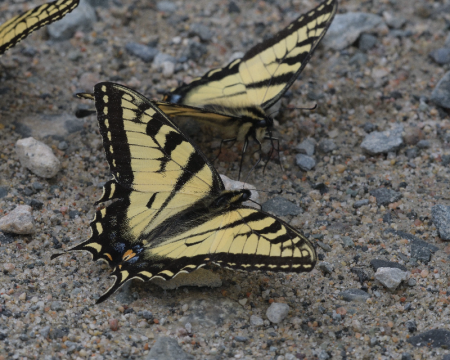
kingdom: Animalia
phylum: Arthropoda
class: Insecta
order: Lepidoptera
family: Papilionidae
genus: Pterourus
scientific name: Pterourus canadensis
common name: Canadian Tiger Swallowtail
